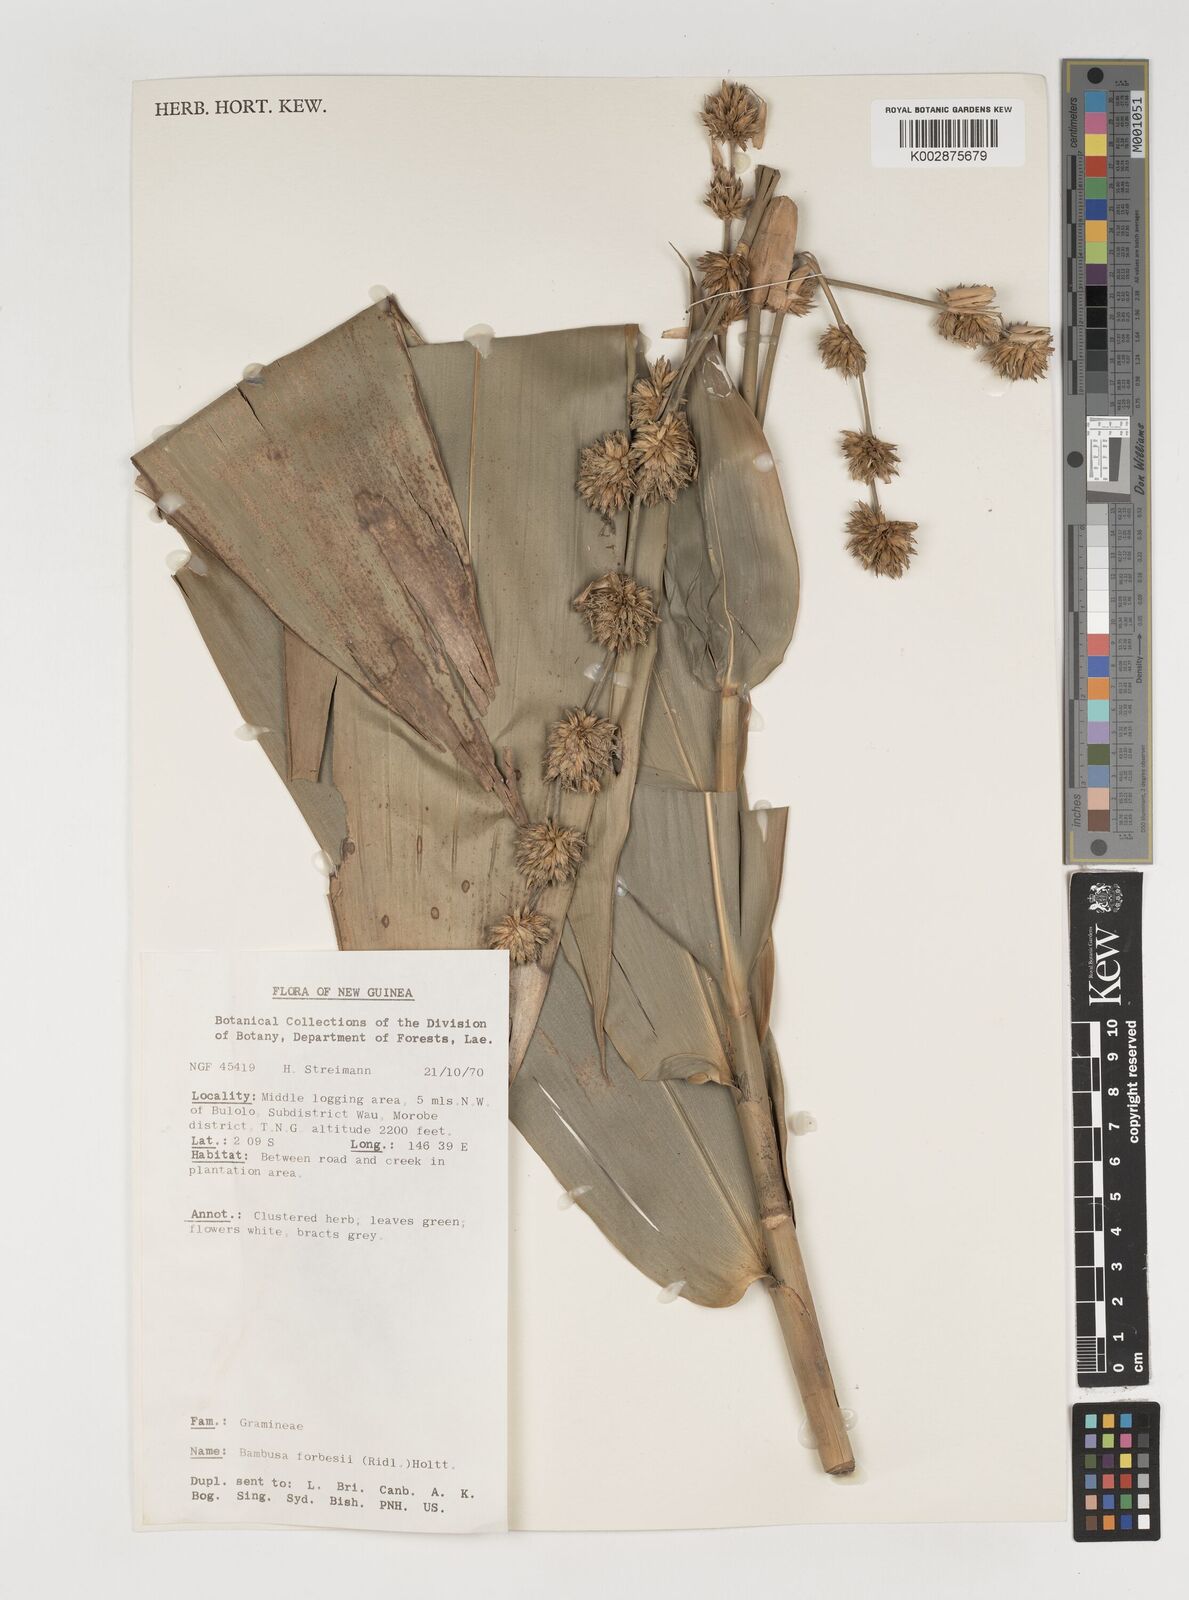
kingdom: Plantae
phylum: Tracheophyta
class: Liliopsida
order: Poales
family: Poaceae
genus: Neololeba
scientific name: Neololeba atra
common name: Cape bamboo
